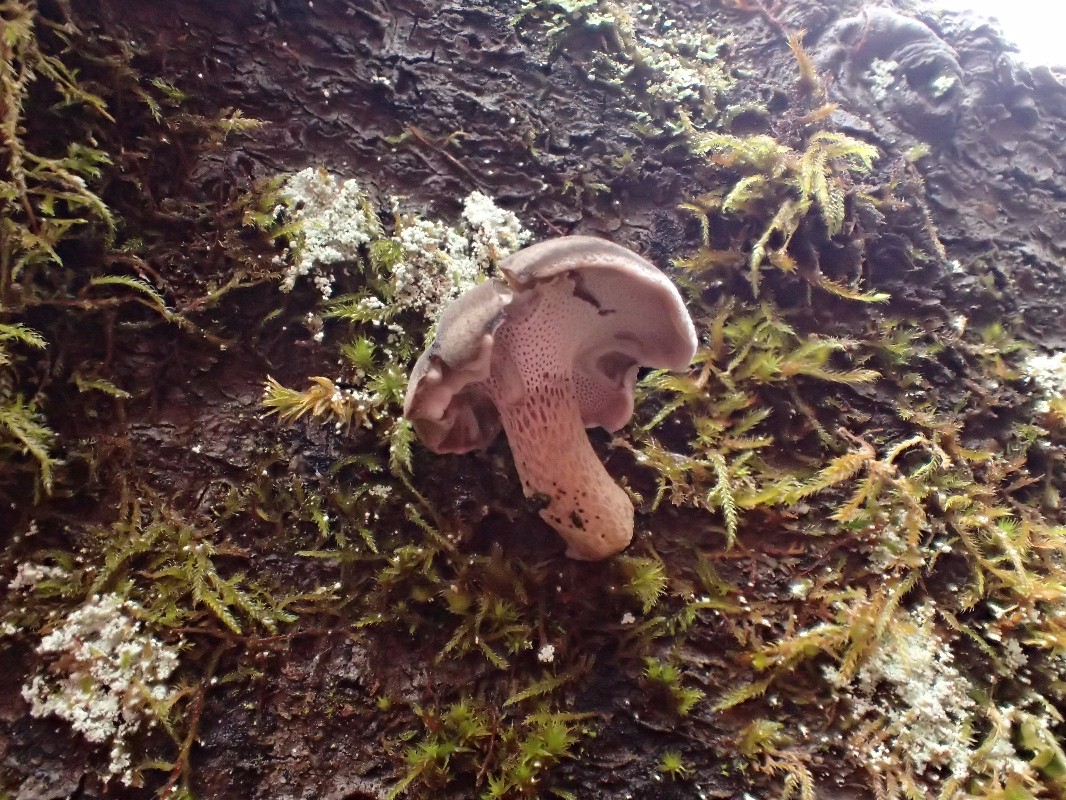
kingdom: Fungi
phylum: Basidiomycota
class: Agaricomycetes
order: Polyporales
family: Polyporaceae
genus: Lentinus
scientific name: Lentinus brumalis
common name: vinter-stilkporesvamp
